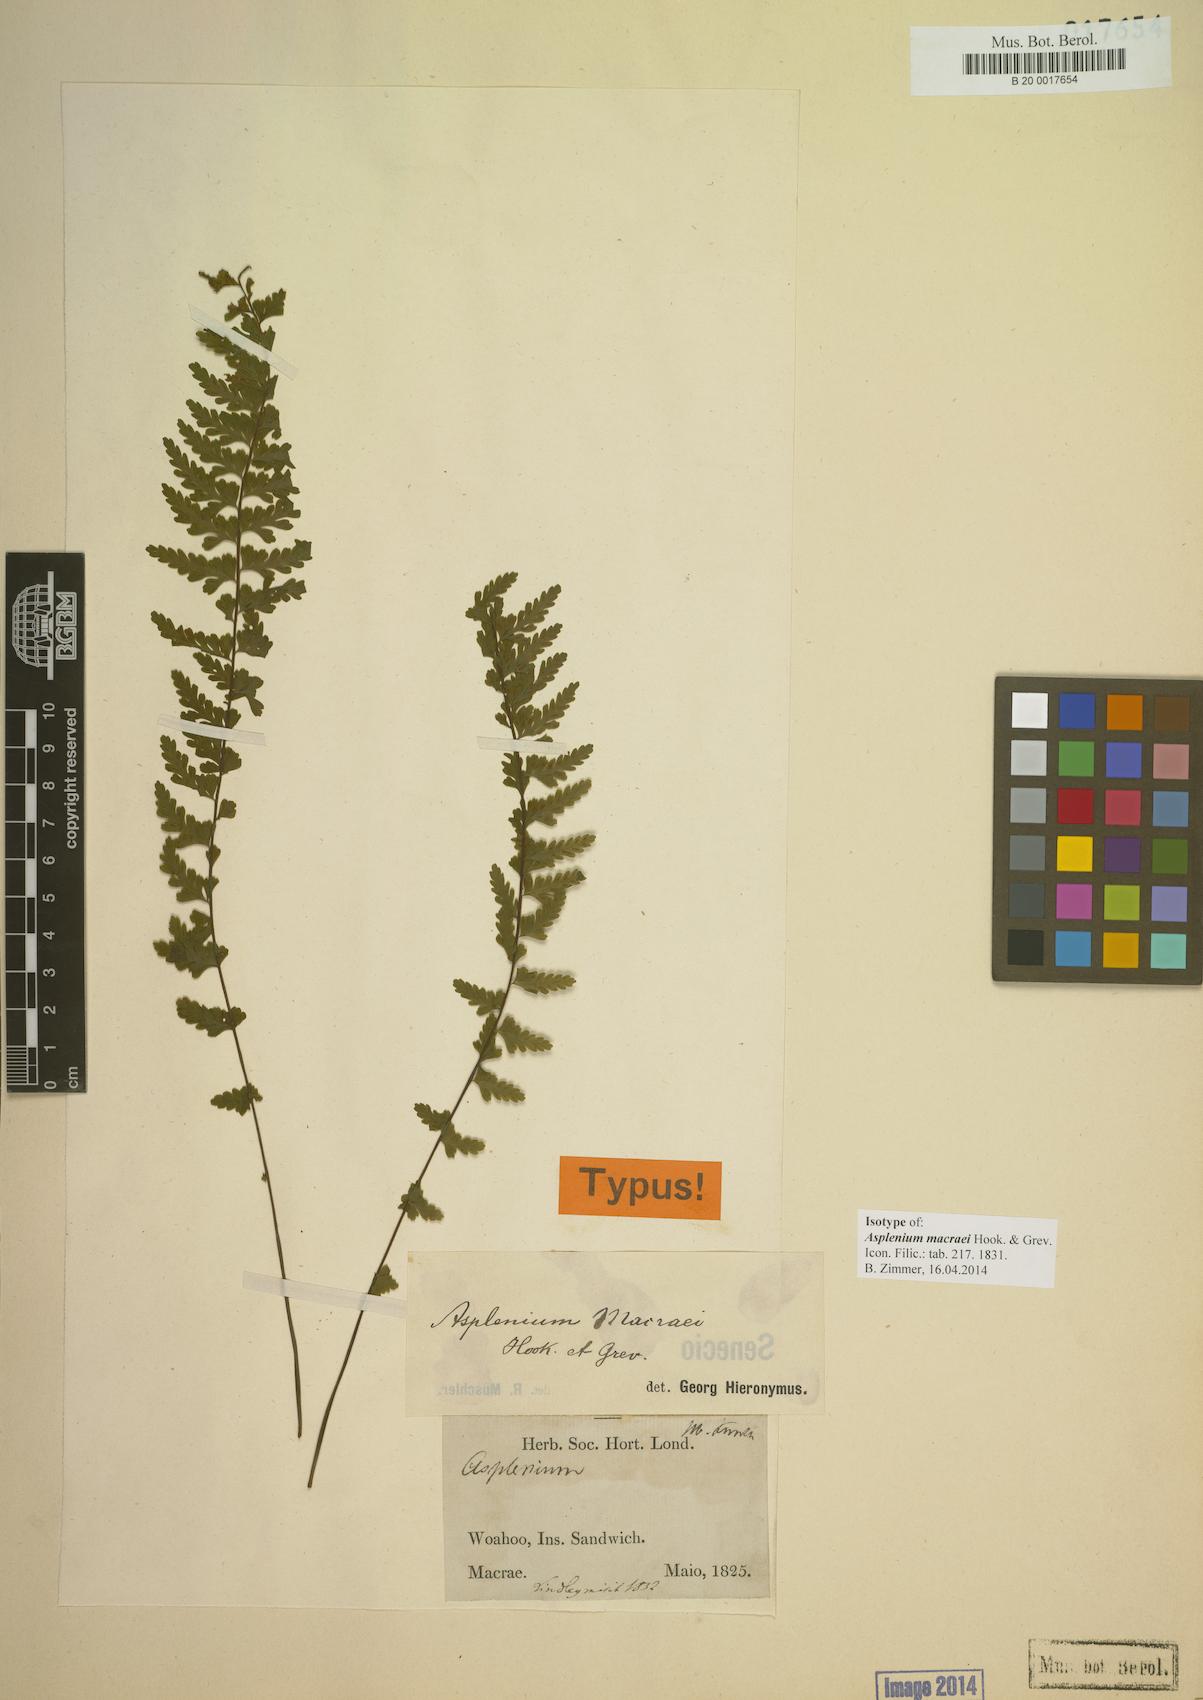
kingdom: Plantae
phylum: Tracheophyta
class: Polypodiopsida
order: Polypodiales
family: Aspleniaceae
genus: Asplenium
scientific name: Asplenium macraei
